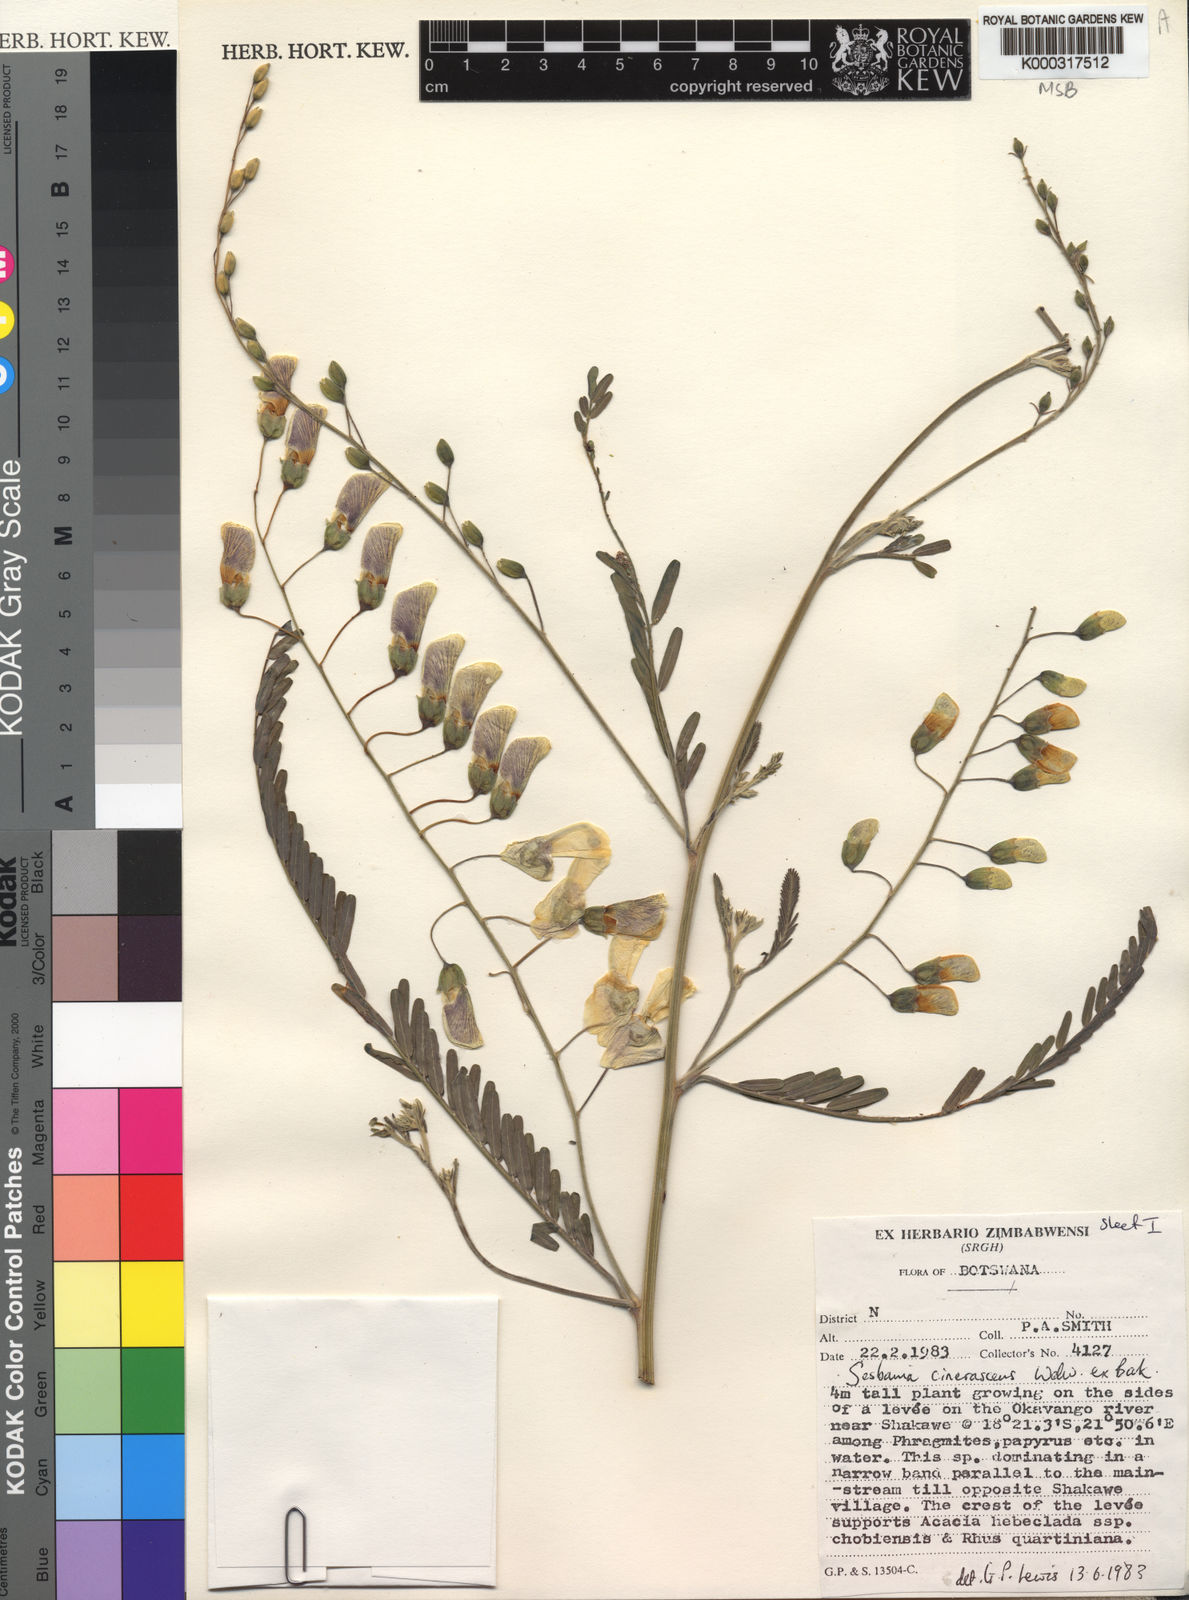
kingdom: Plantae
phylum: Tracheophyta
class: Magnoliopsida
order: Fabales
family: Fabaceae
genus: Sesbania
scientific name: Sesbania cinerascens
